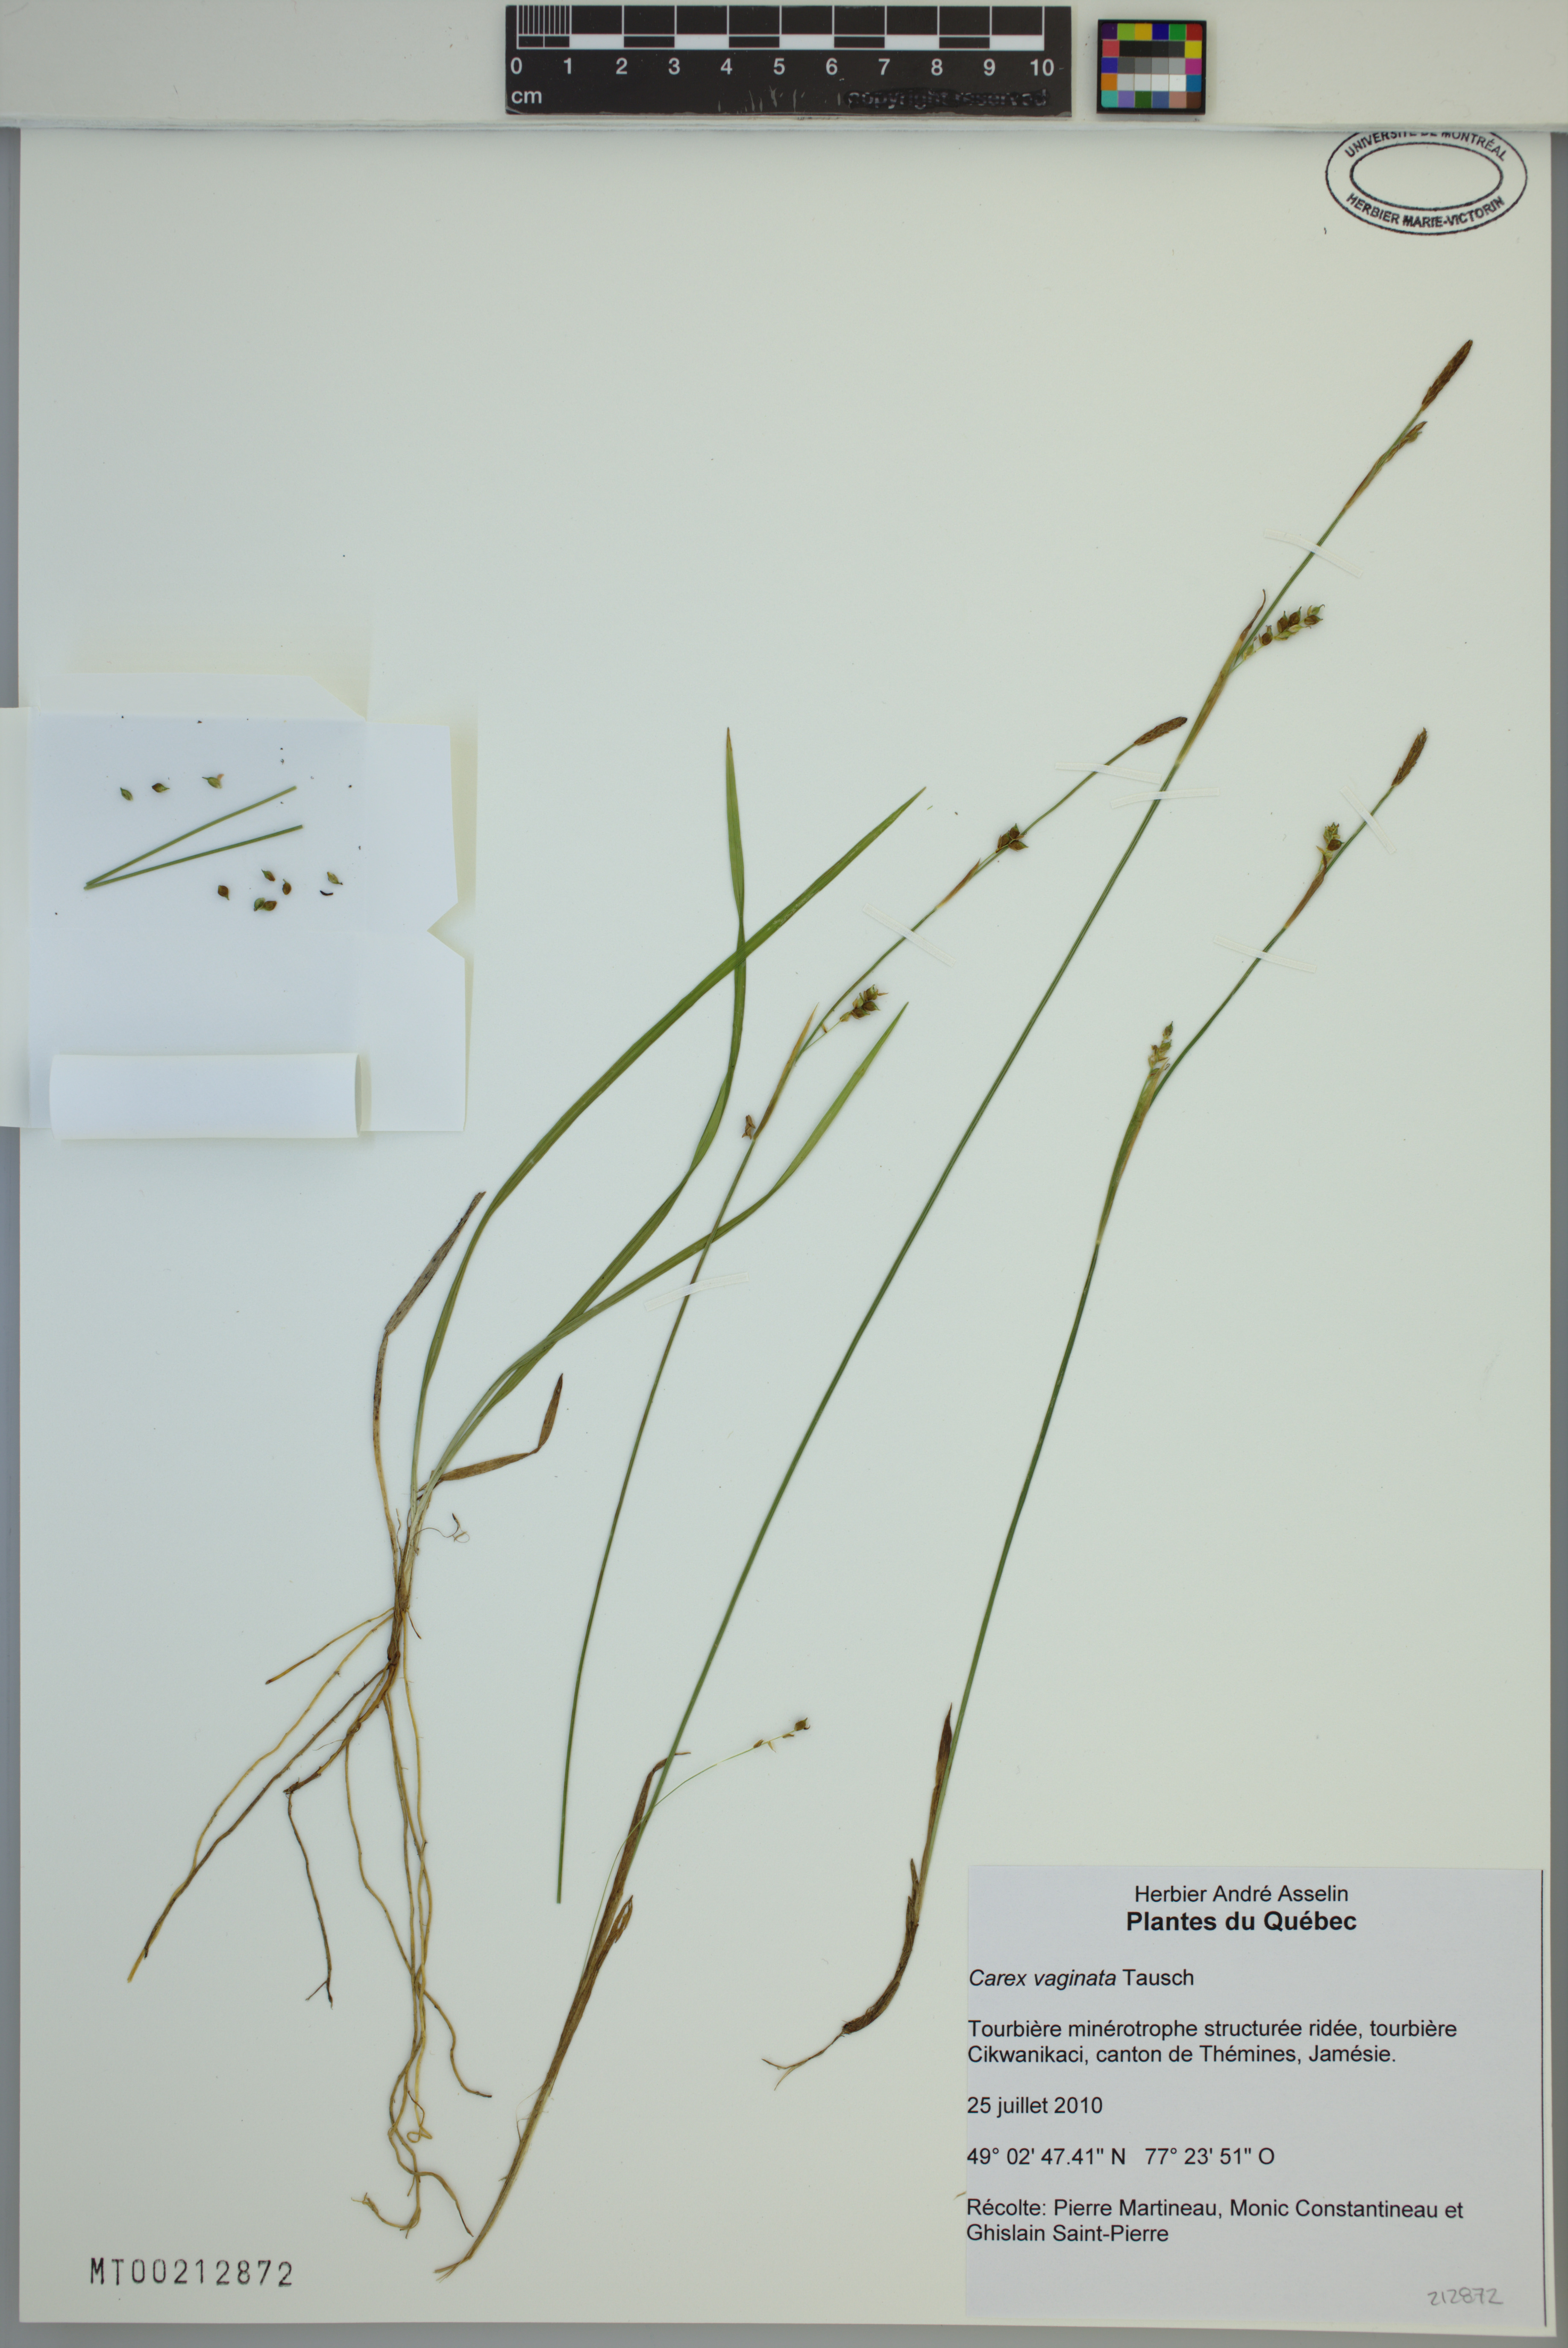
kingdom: Plantae
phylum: Tracheophyta
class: Liliopsida
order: Poales
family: Cyperaceae
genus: Carex
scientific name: Carex vaginata
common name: Sheathed sedge
